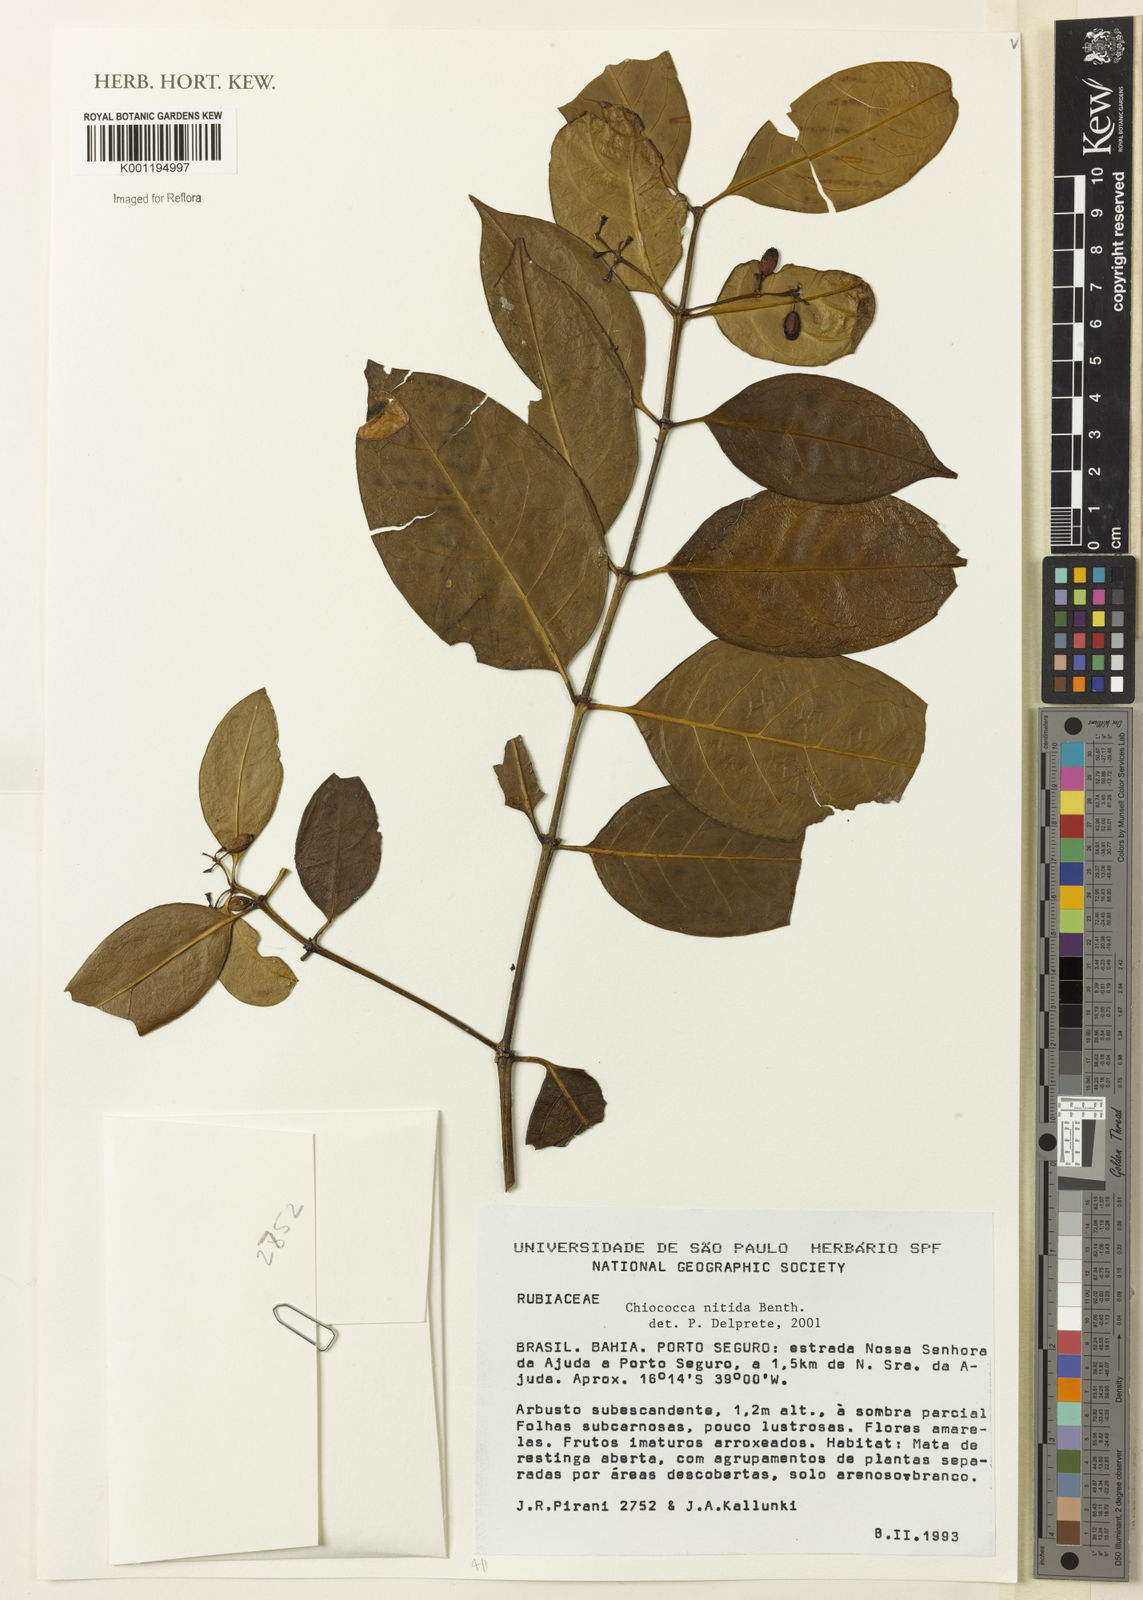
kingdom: Plantae
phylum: Tracheophyta
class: Magnoliopsida
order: Gentianales
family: Rubiaceae
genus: Chiococca
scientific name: Chiococca nitida
